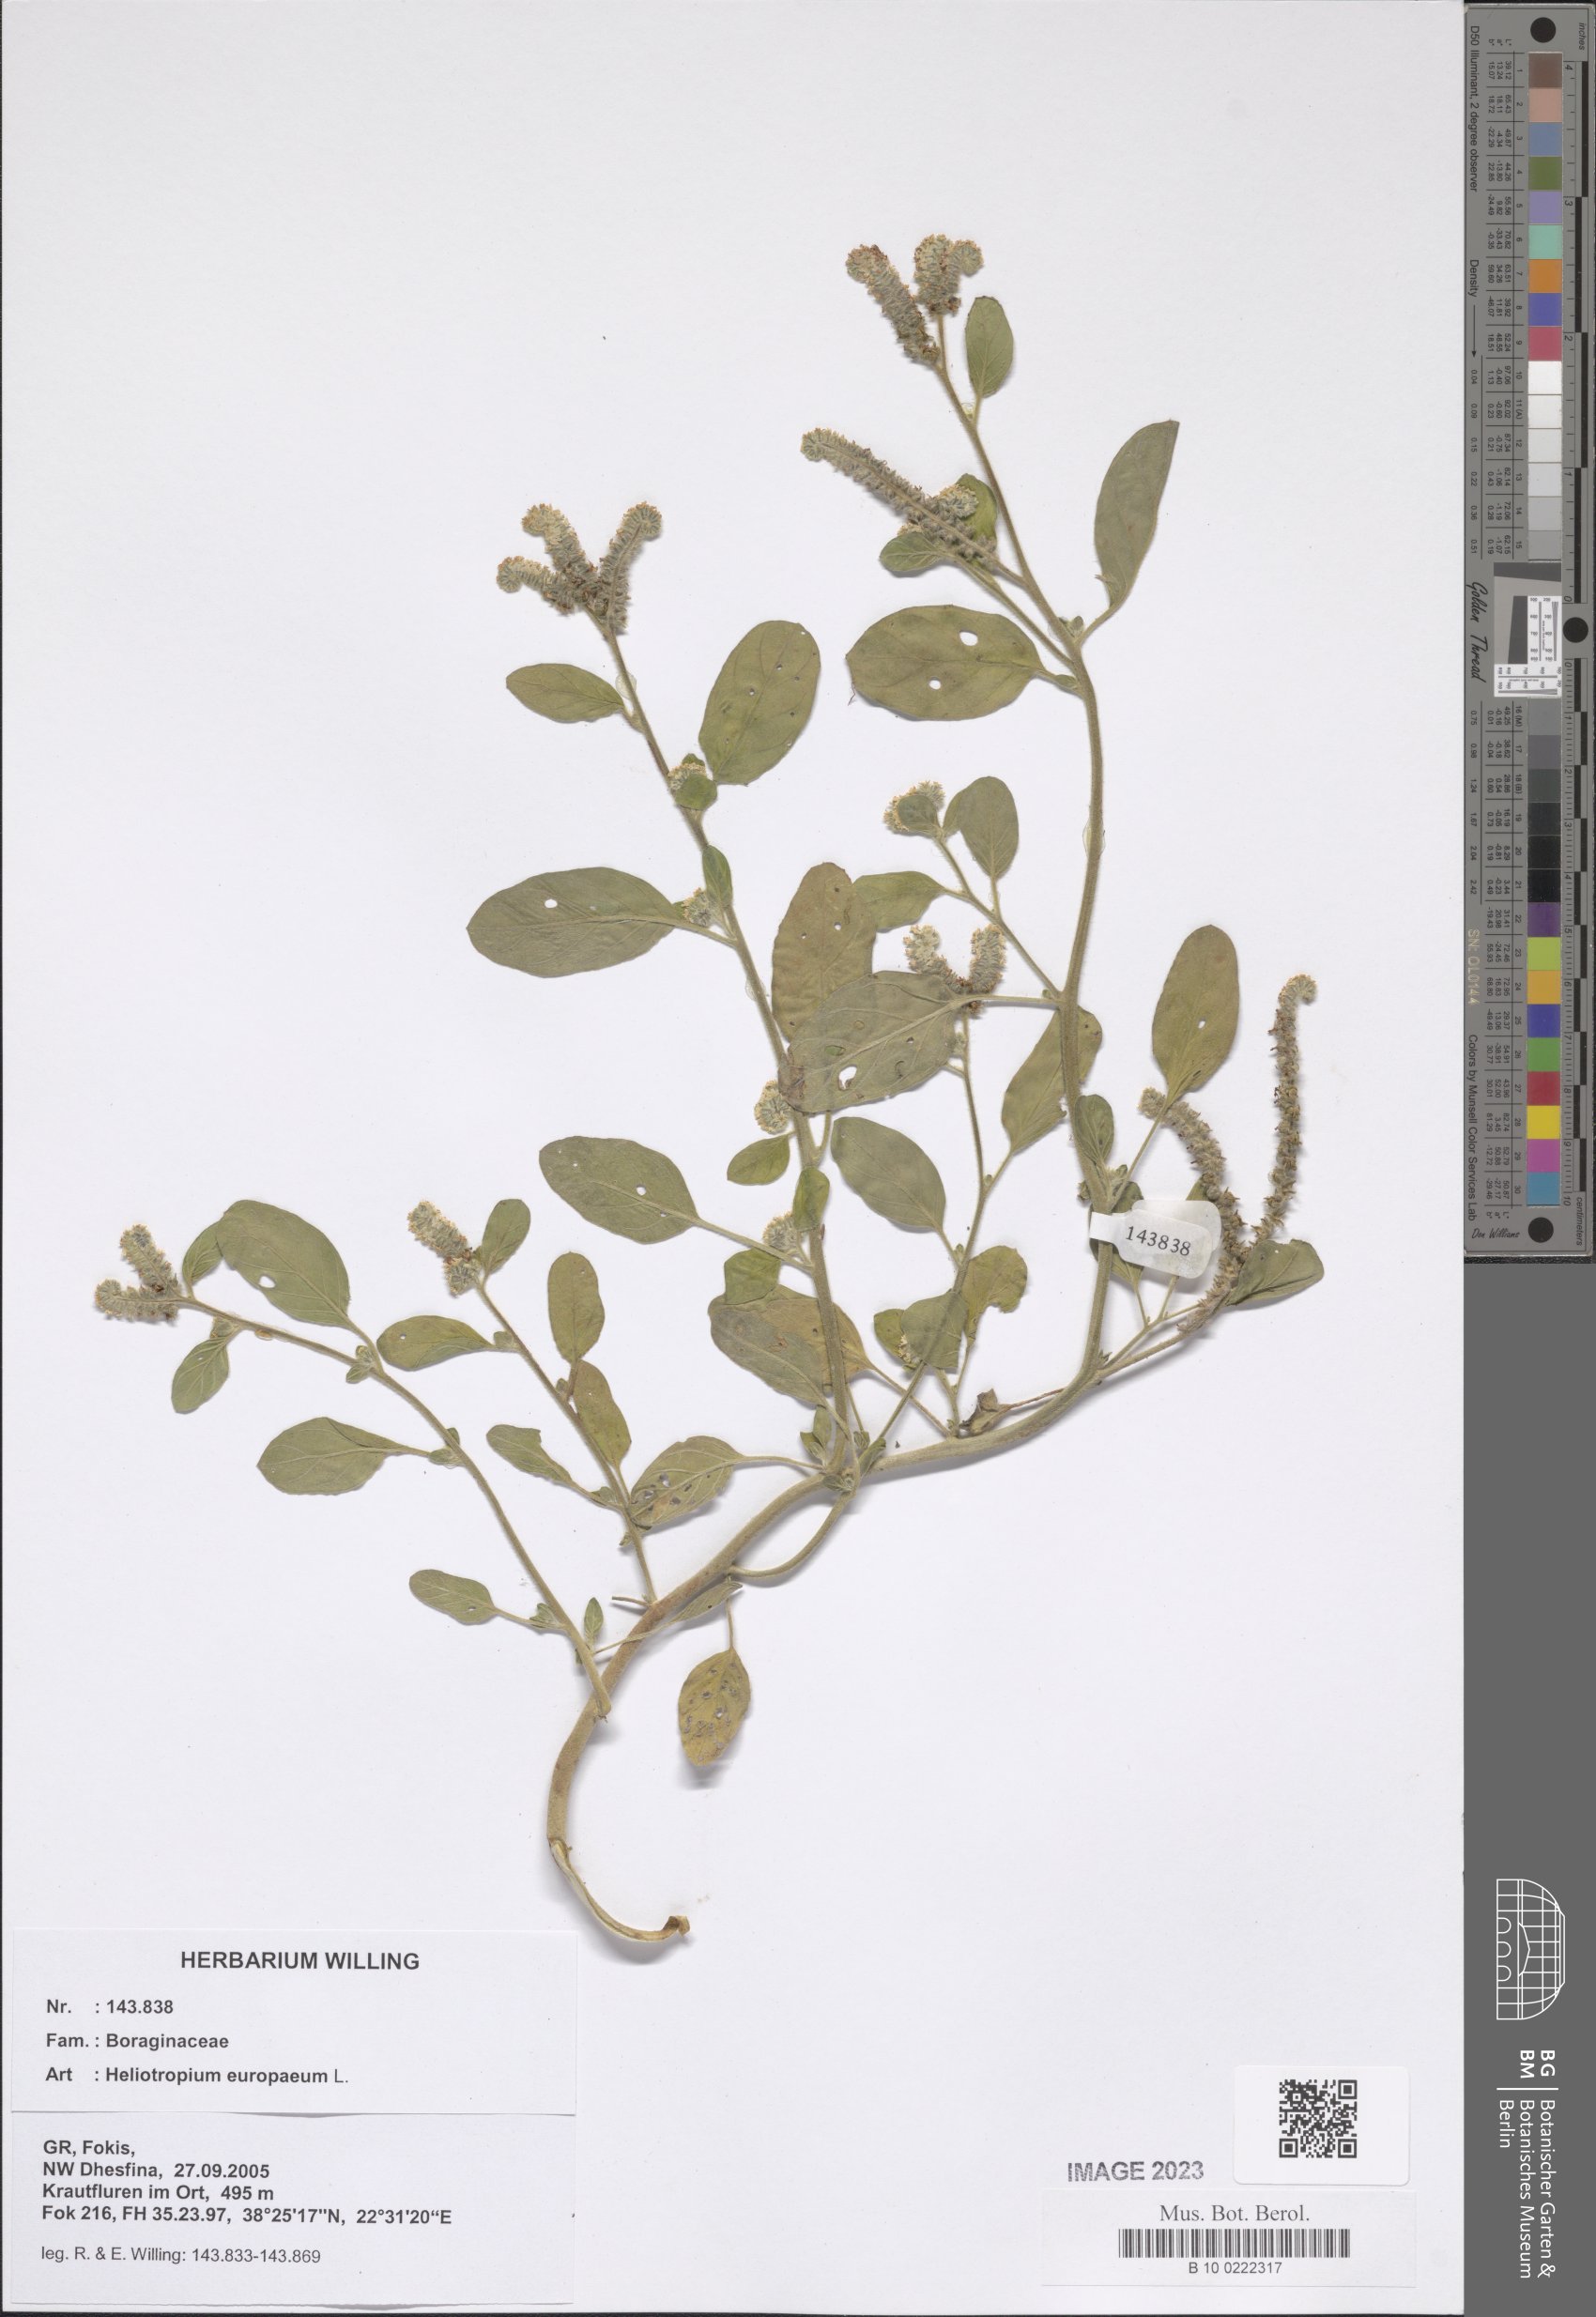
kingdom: Plantae
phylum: Tracheophyta
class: Magnoliopsida
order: Boraginales
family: Heliotropiaceae
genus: Heliotropium
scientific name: Heliotropium europaeum
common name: European heliotrope
